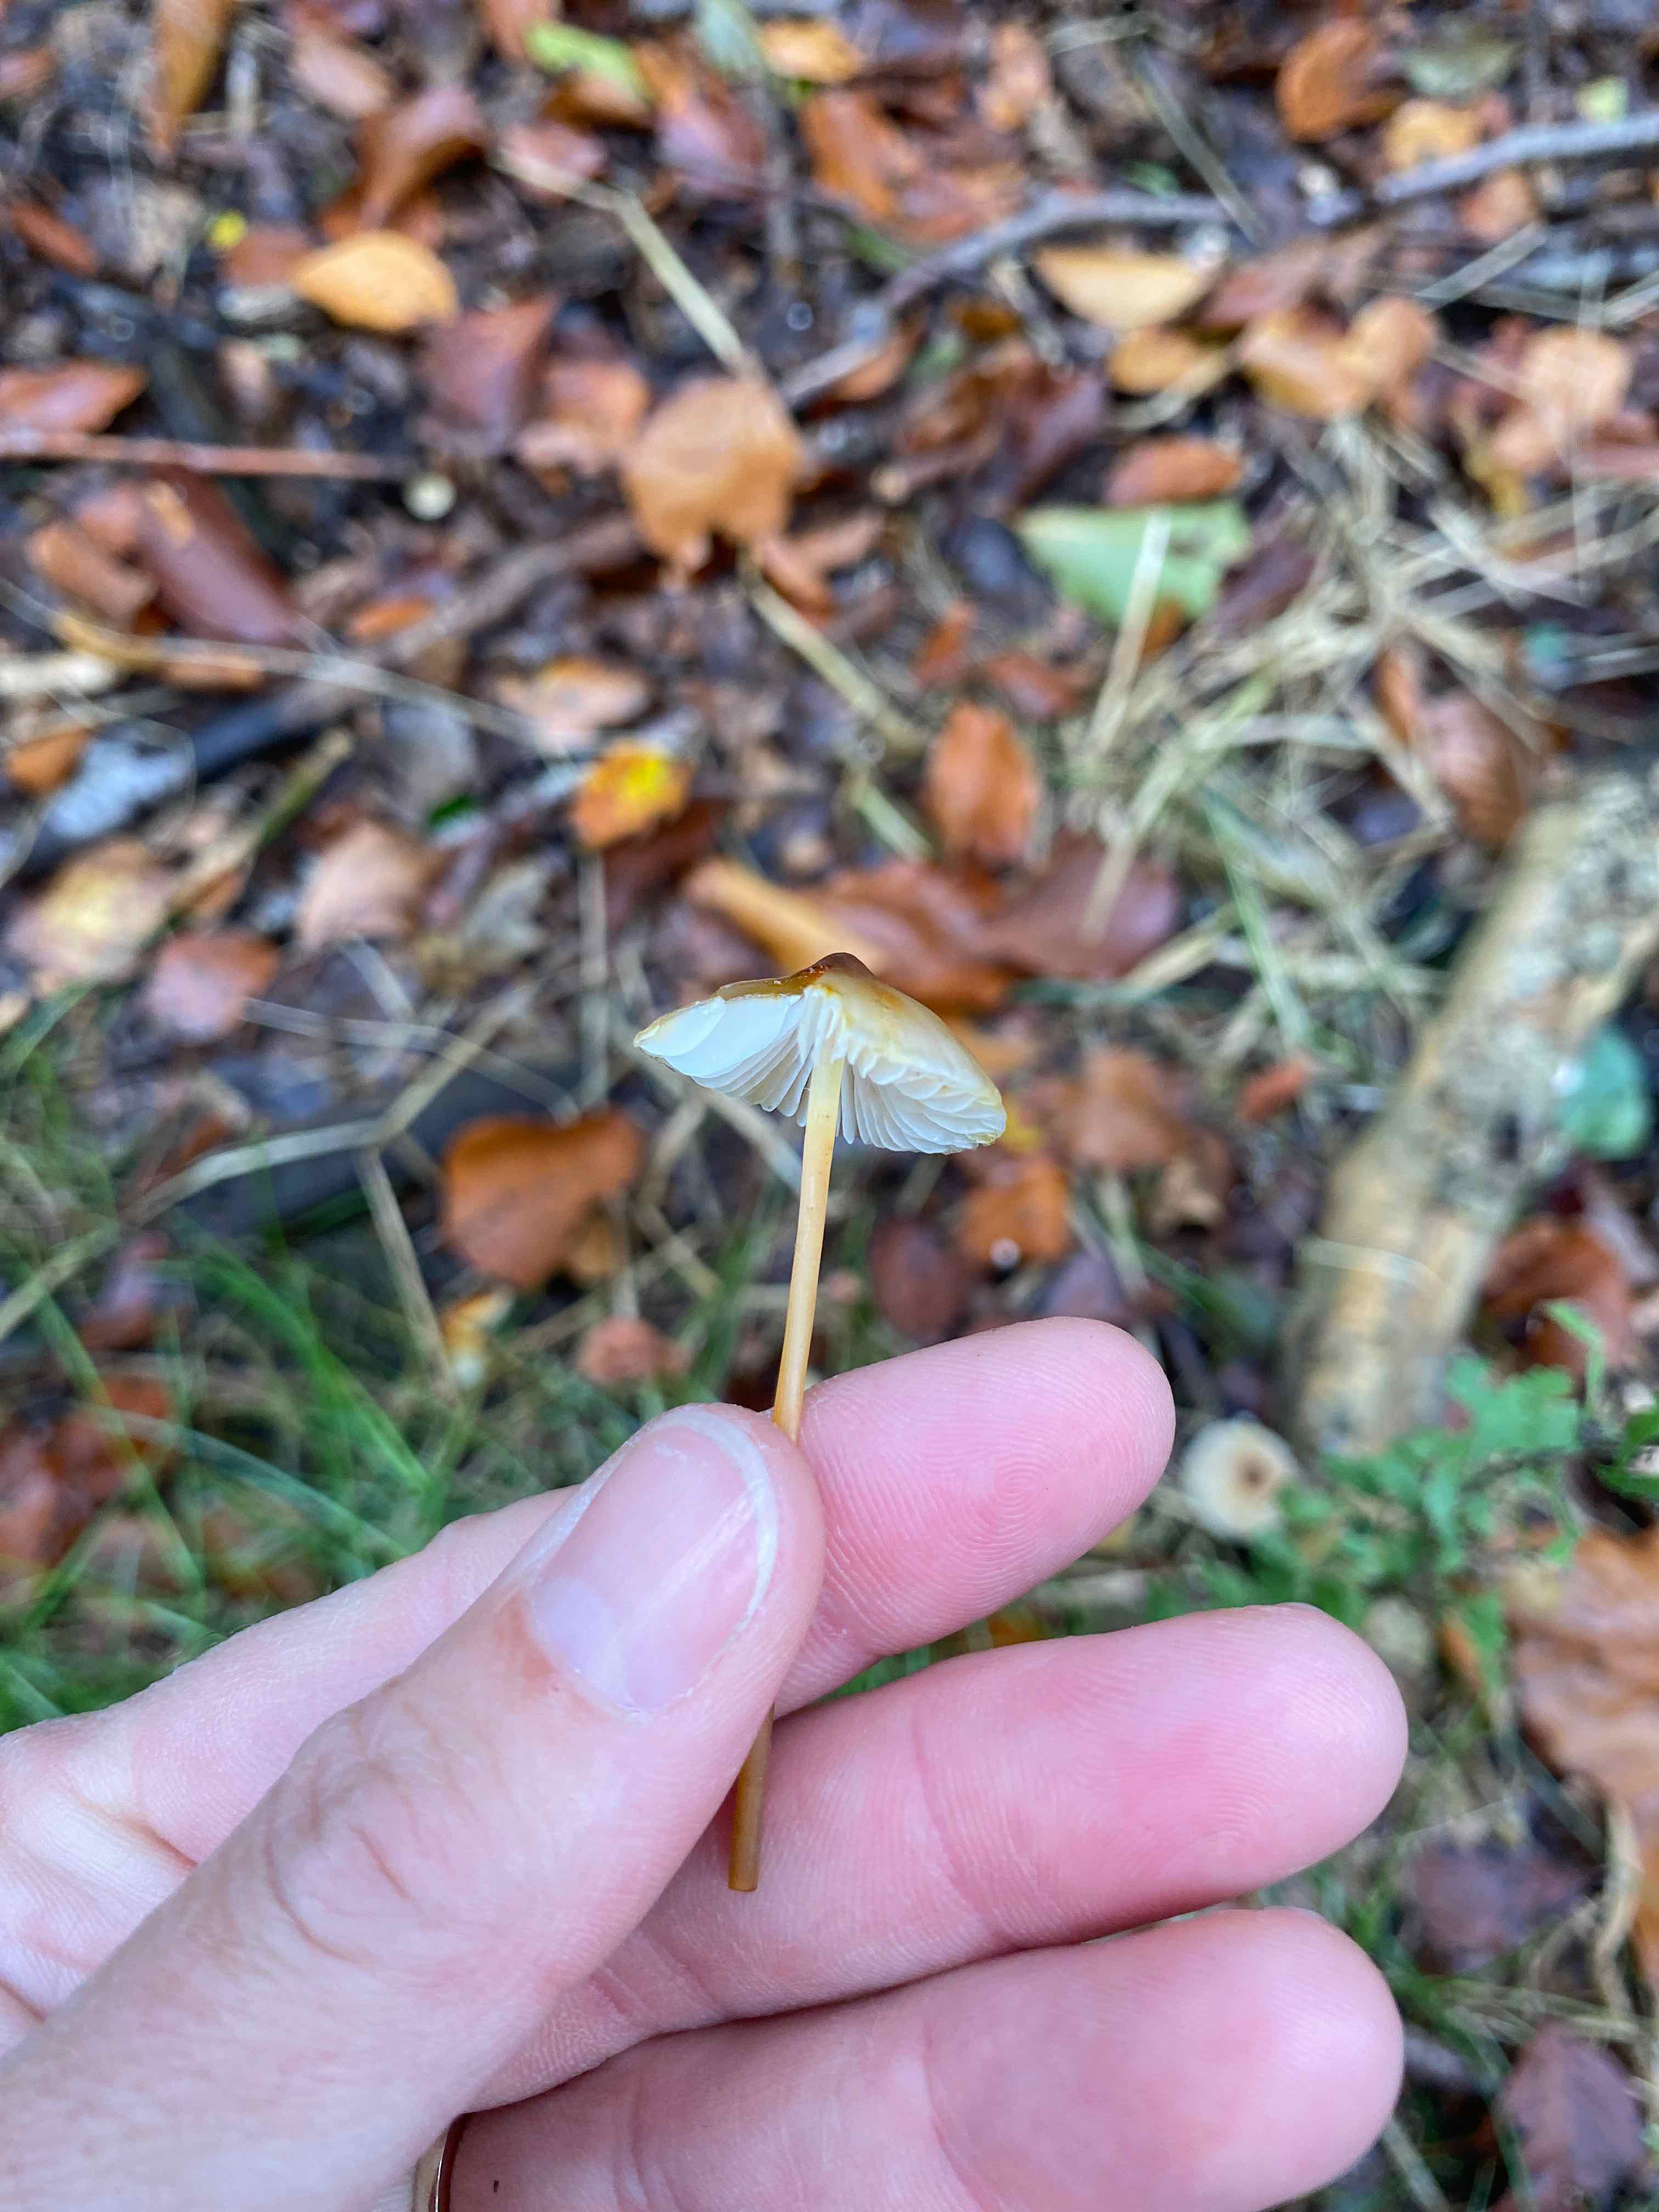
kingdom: Fungi
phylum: Basidiomycota
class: Agaricomycetes
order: Agaricales
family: Mycenaceae
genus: Mycena
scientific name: Mycena crocata
